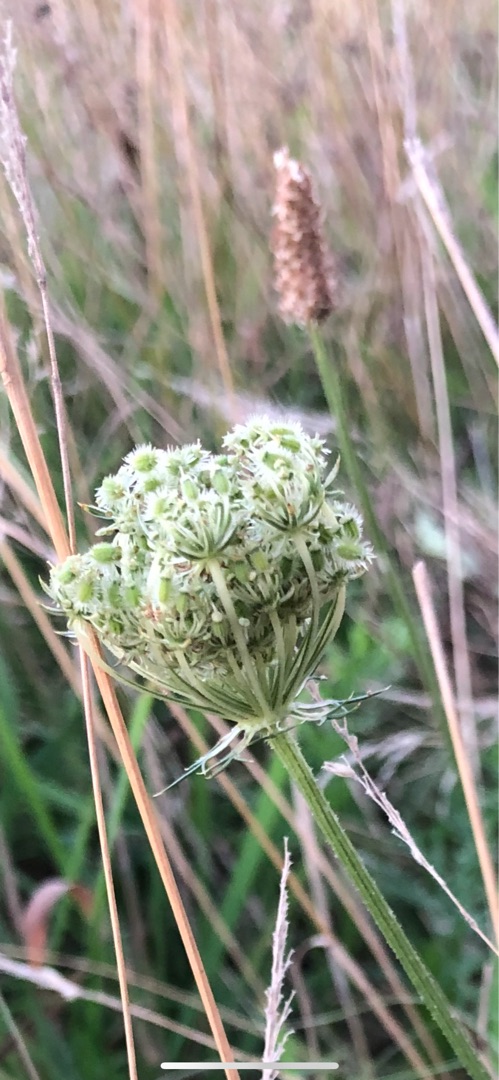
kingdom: Plantae
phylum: Tracheophyta
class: Magnoliopsida
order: Apiales
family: Apiaceae
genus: Daucus
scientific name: Daucus carota
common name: Vild gulerod
